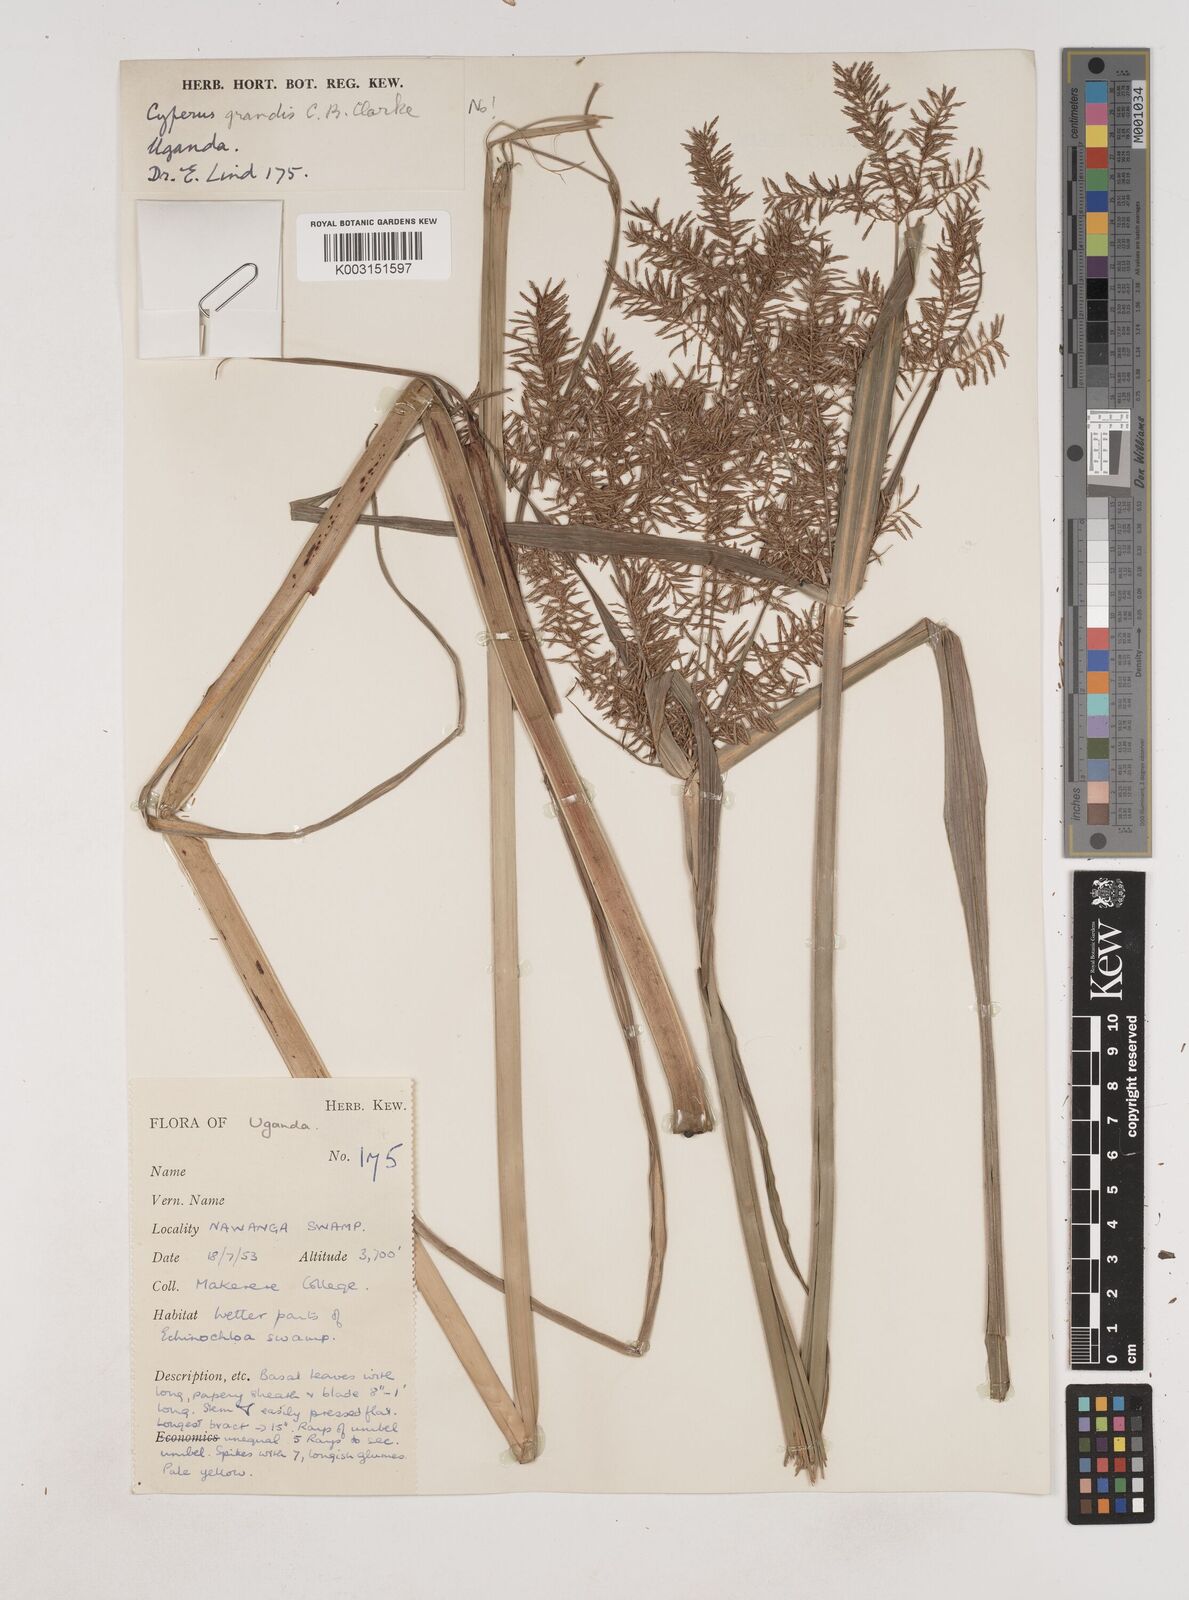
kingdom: Plantae
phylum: Tracheophyta
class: Liliopsida
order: Poales
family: Cyperaceae
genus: Cyperus
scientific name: Cyperus digitatus
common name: Finger flatsedge
